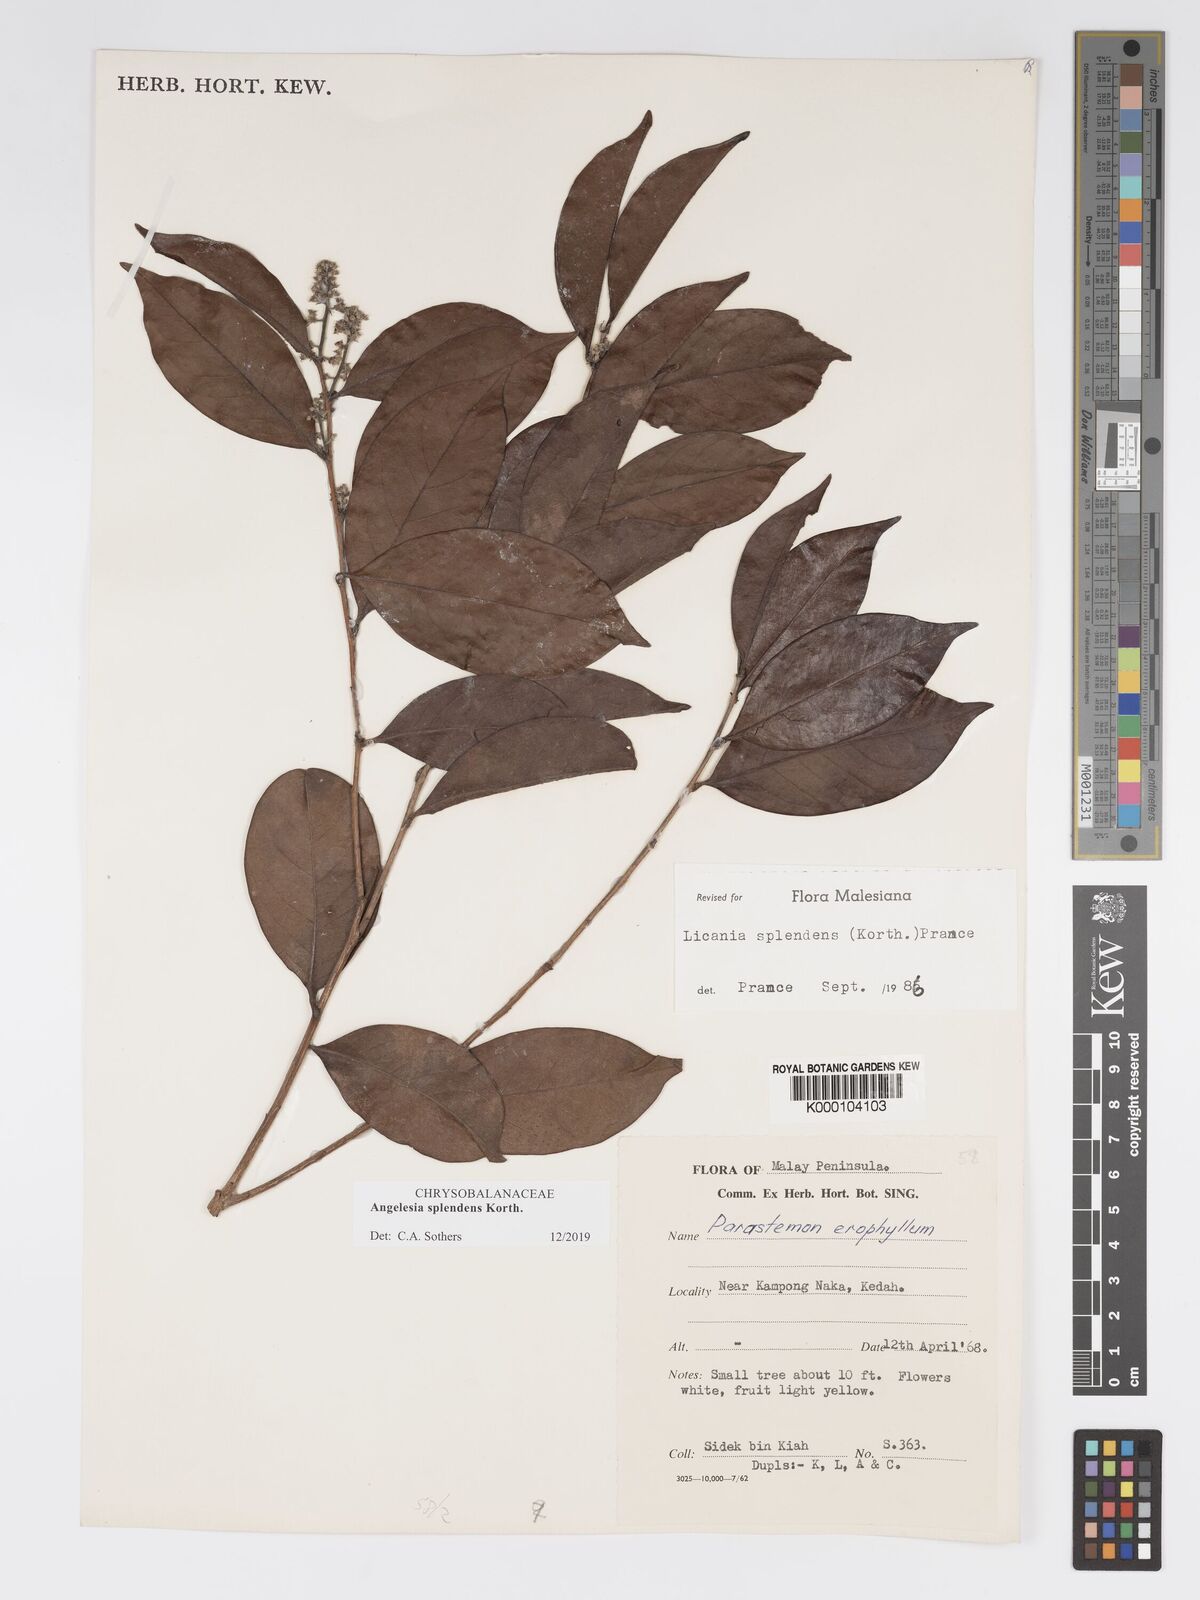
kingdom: Plantae
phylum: Tracheophyta
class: Magnoliopsida
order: Malpighiales
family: Chrysobalanaceae
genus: Angelesia
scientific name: Angelesia splendens
